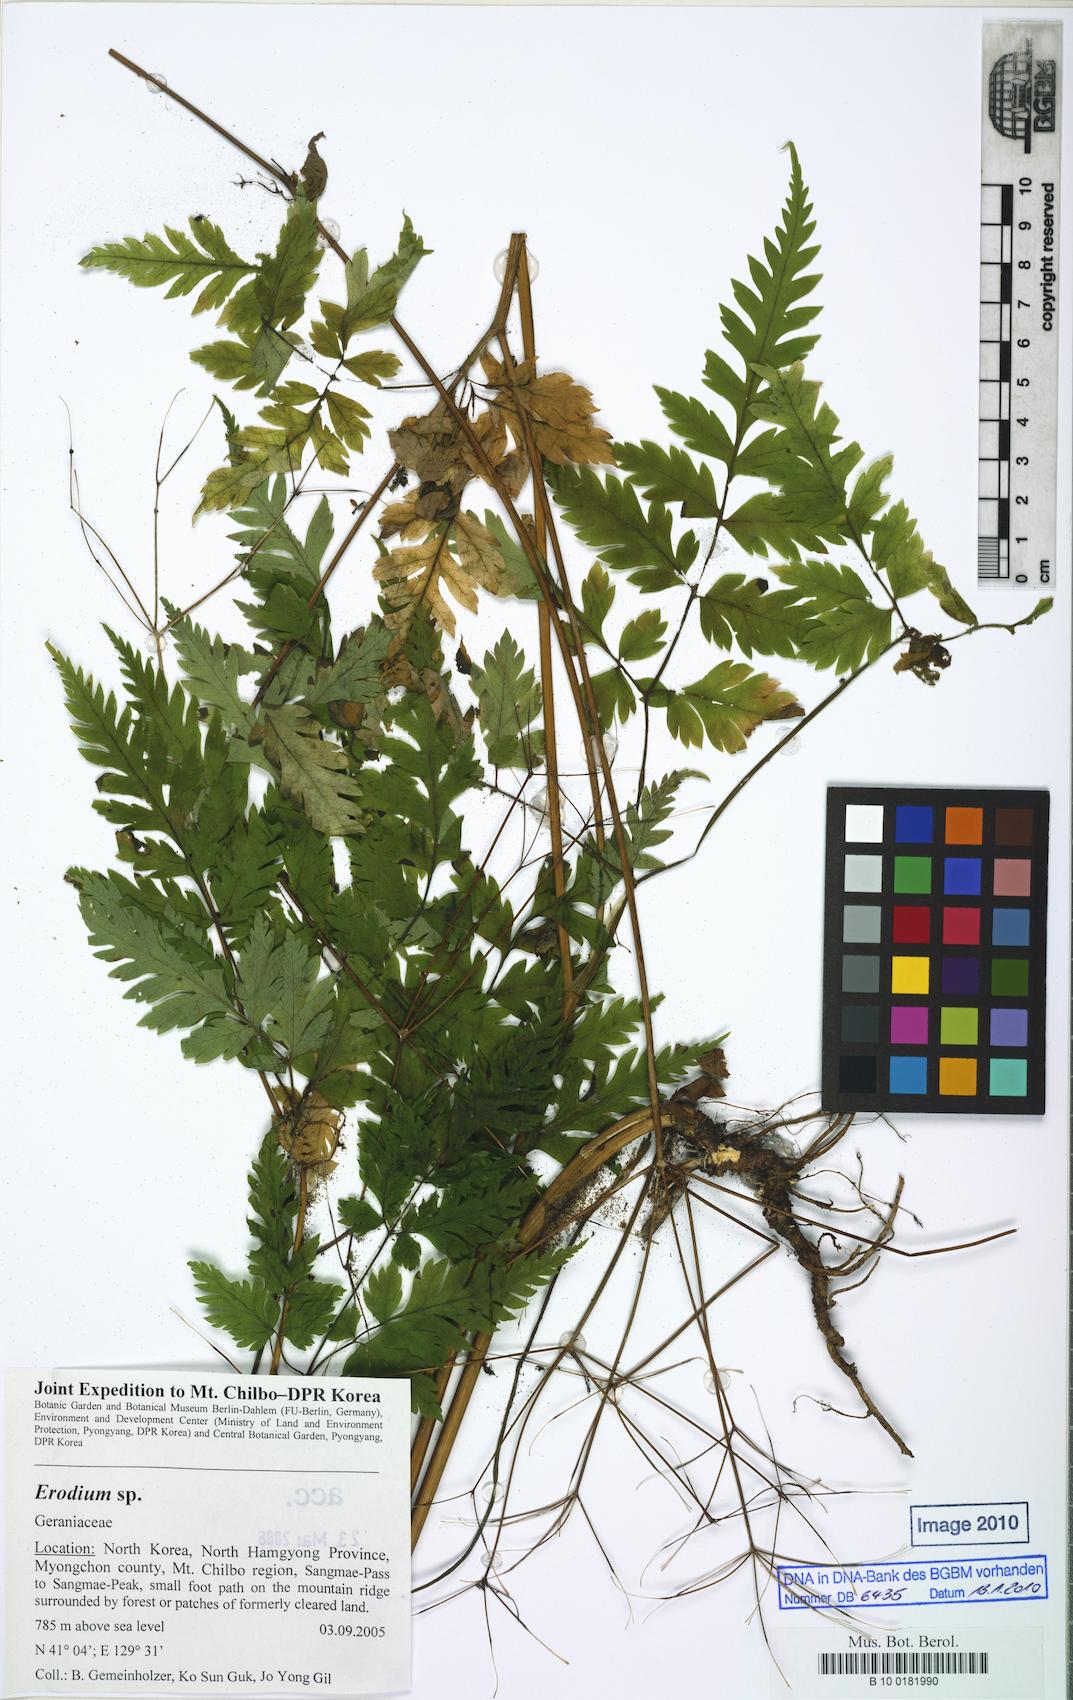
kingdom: Plantae
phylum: Tracheophyta
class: Magnoliopsida
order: Geraniales
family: Geraniaceae
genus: Erodium
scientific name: Erodium
